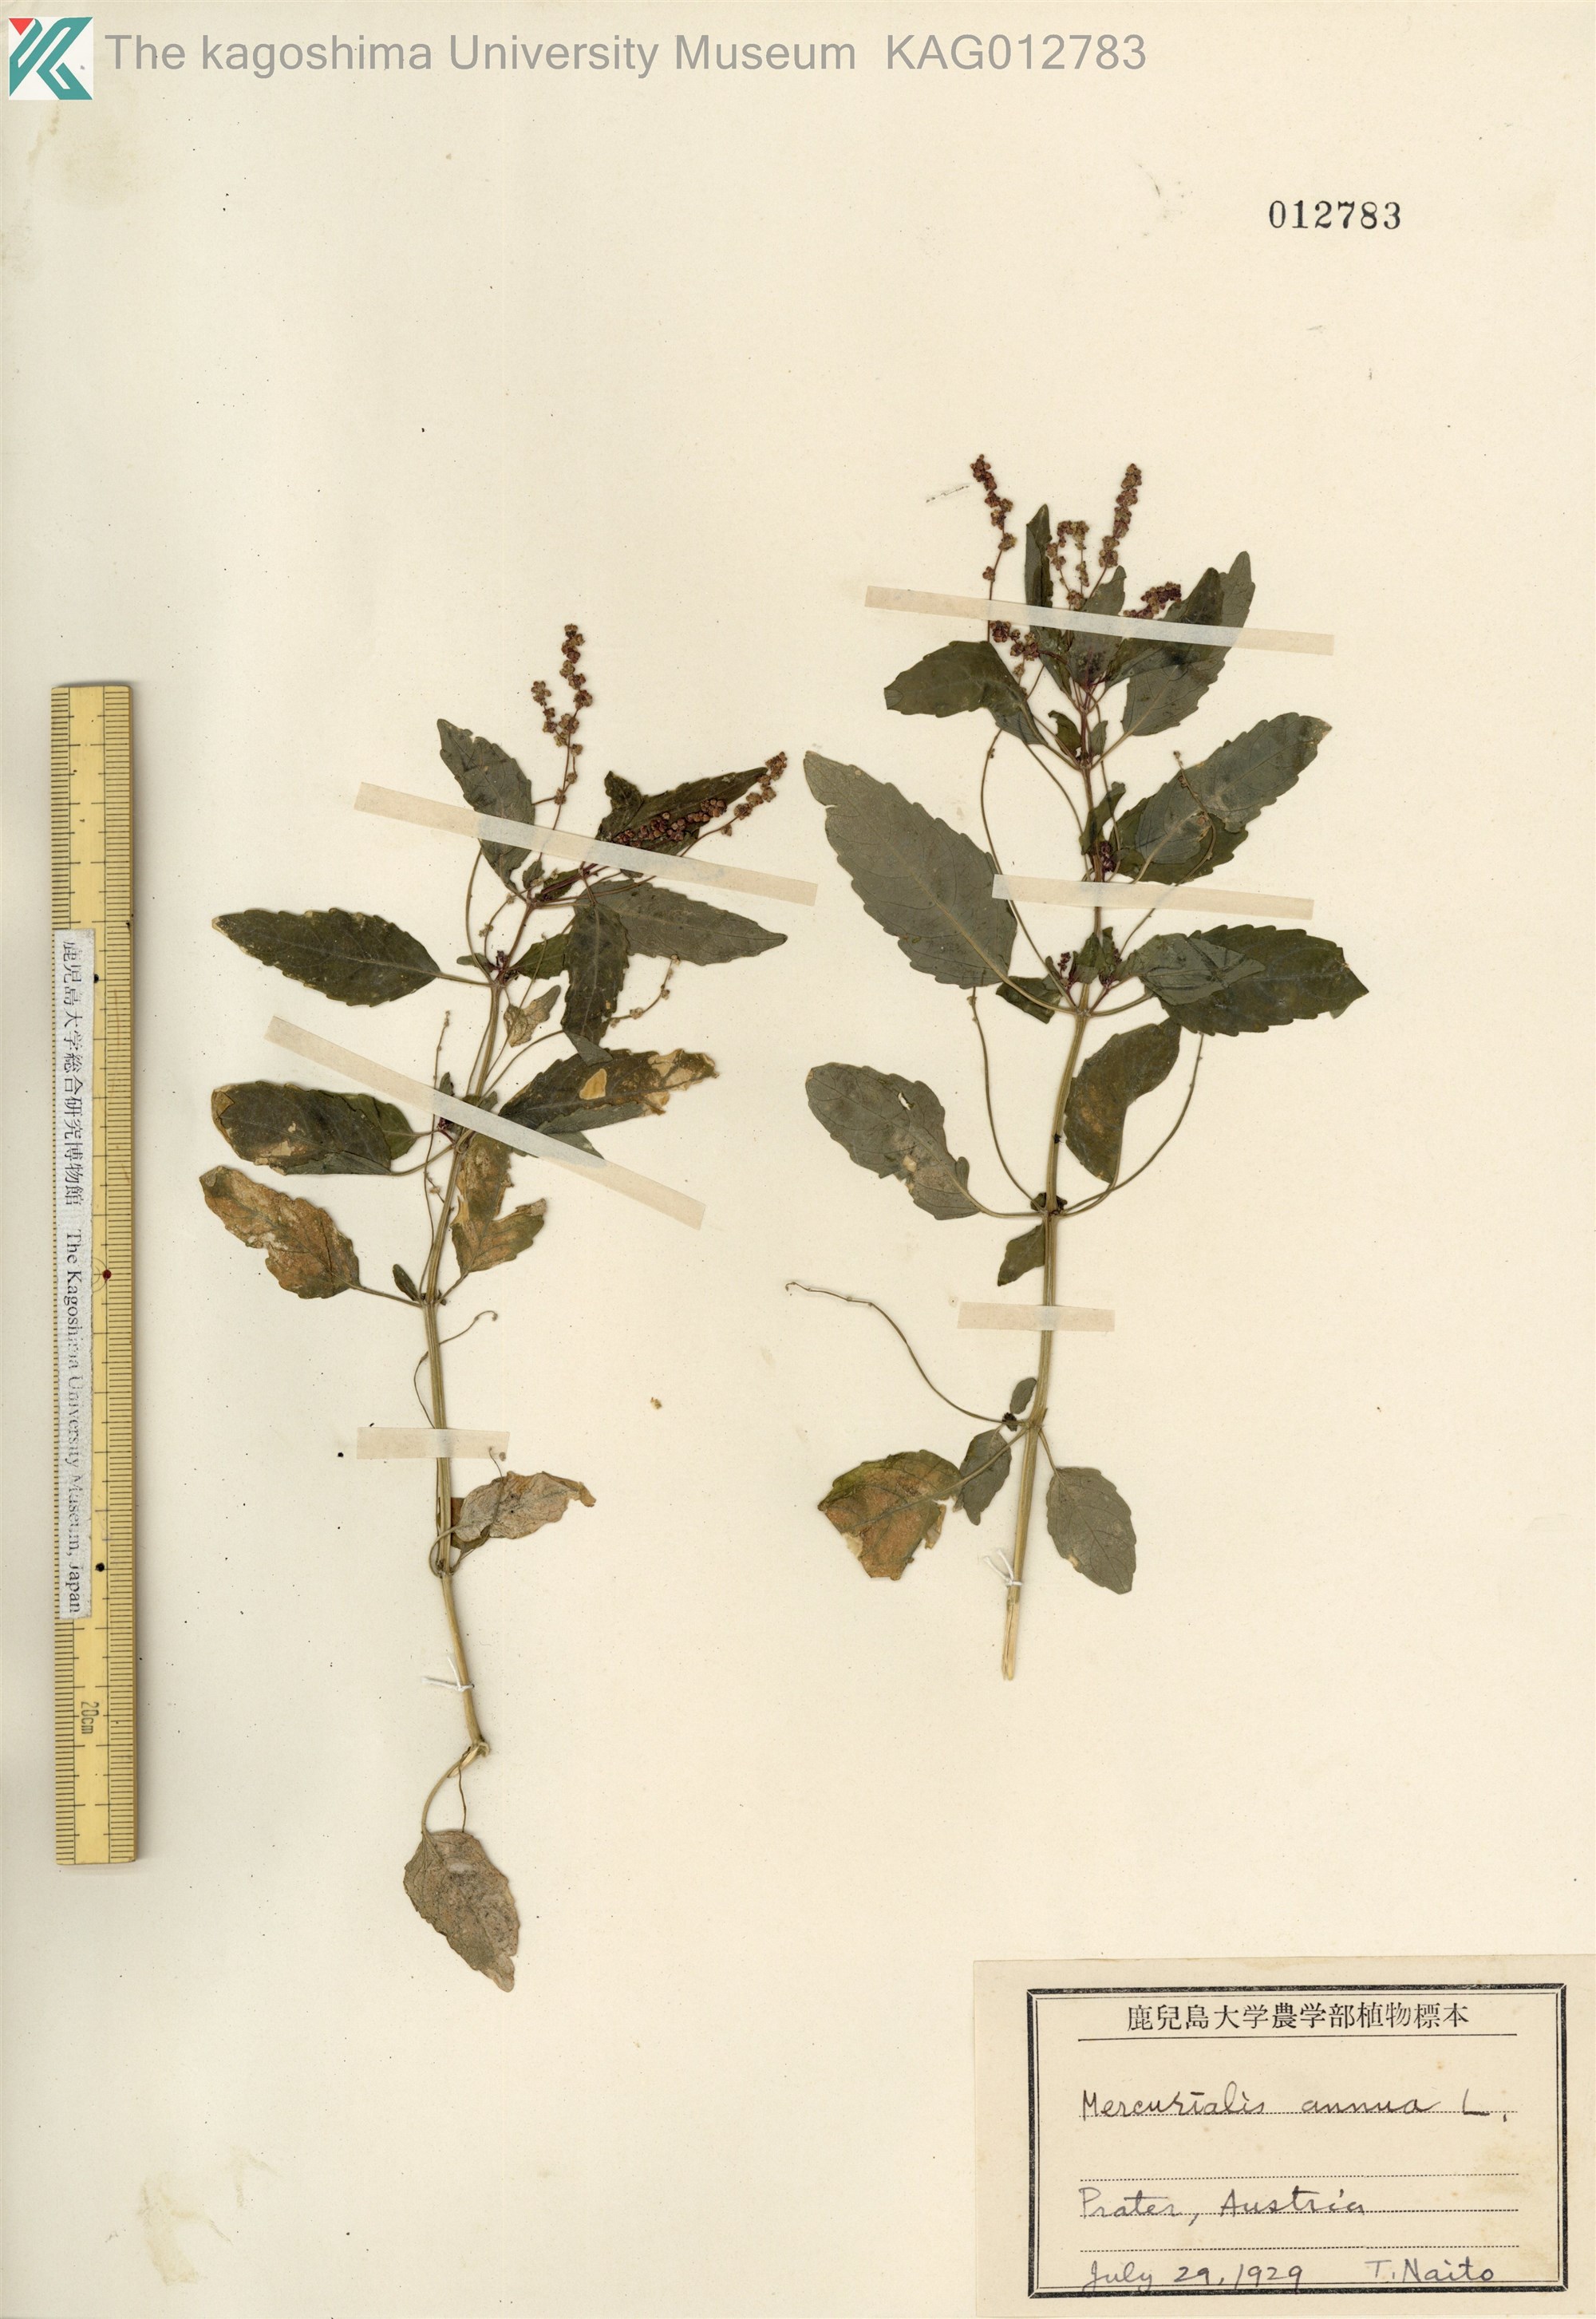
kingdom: Plantae
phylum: Tracheophyta
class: Magnoliopsida
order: Malpighiales
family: Euphorbiaceae
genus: Mercurialis
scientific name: Mercurialis annua
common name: Annual mercury
